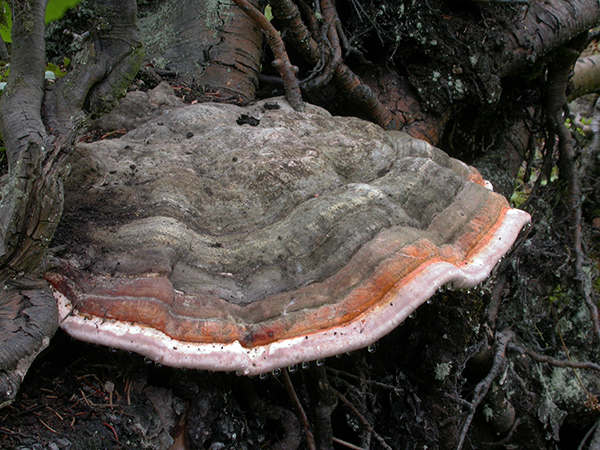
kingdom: Fungi
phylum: Basidiomycota
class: Agaricomycetes
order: Polyporales
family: Fomitopsidaceae
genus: Fomitopsis
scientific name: Fomitopsis pinicola
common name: randbæltet hovporesvamp
